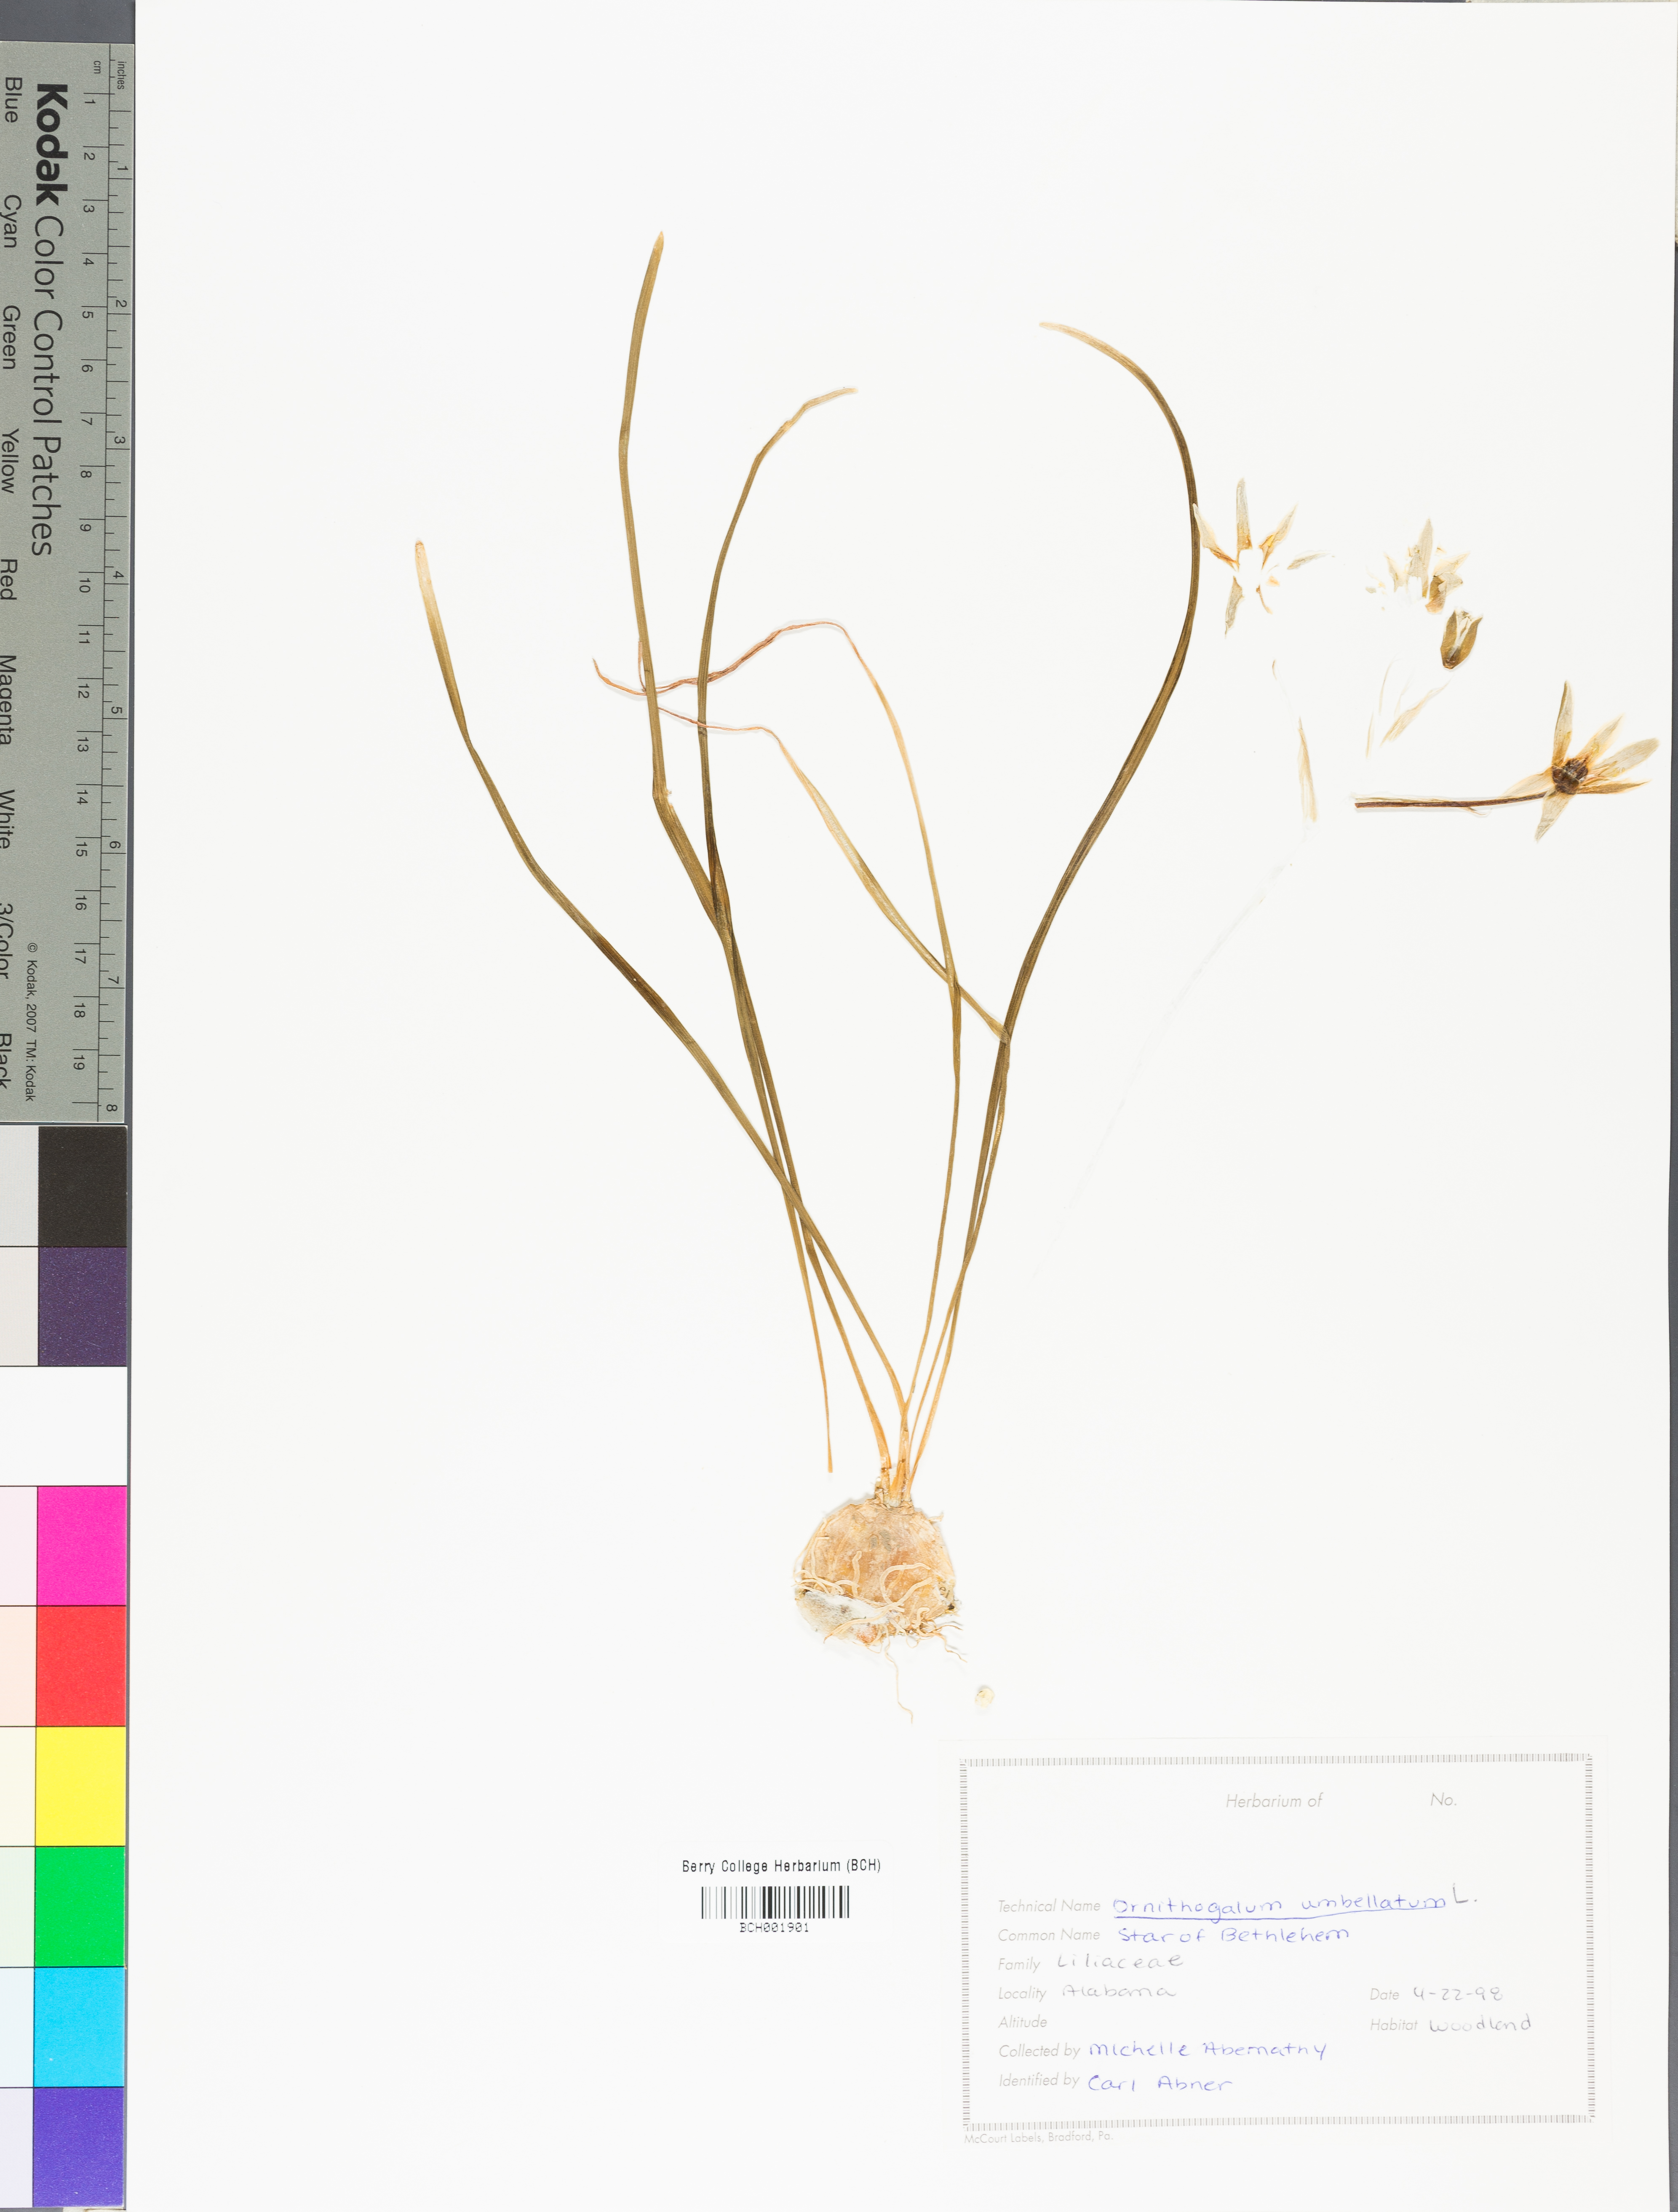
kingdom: Plantae
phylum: Tracheophyta
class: Liliopsida
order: Asparagales
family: Asparagaceae
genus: Ornithogalum
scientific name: Ornithogalum umbellatum
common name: Garden star-of-bethlehem
